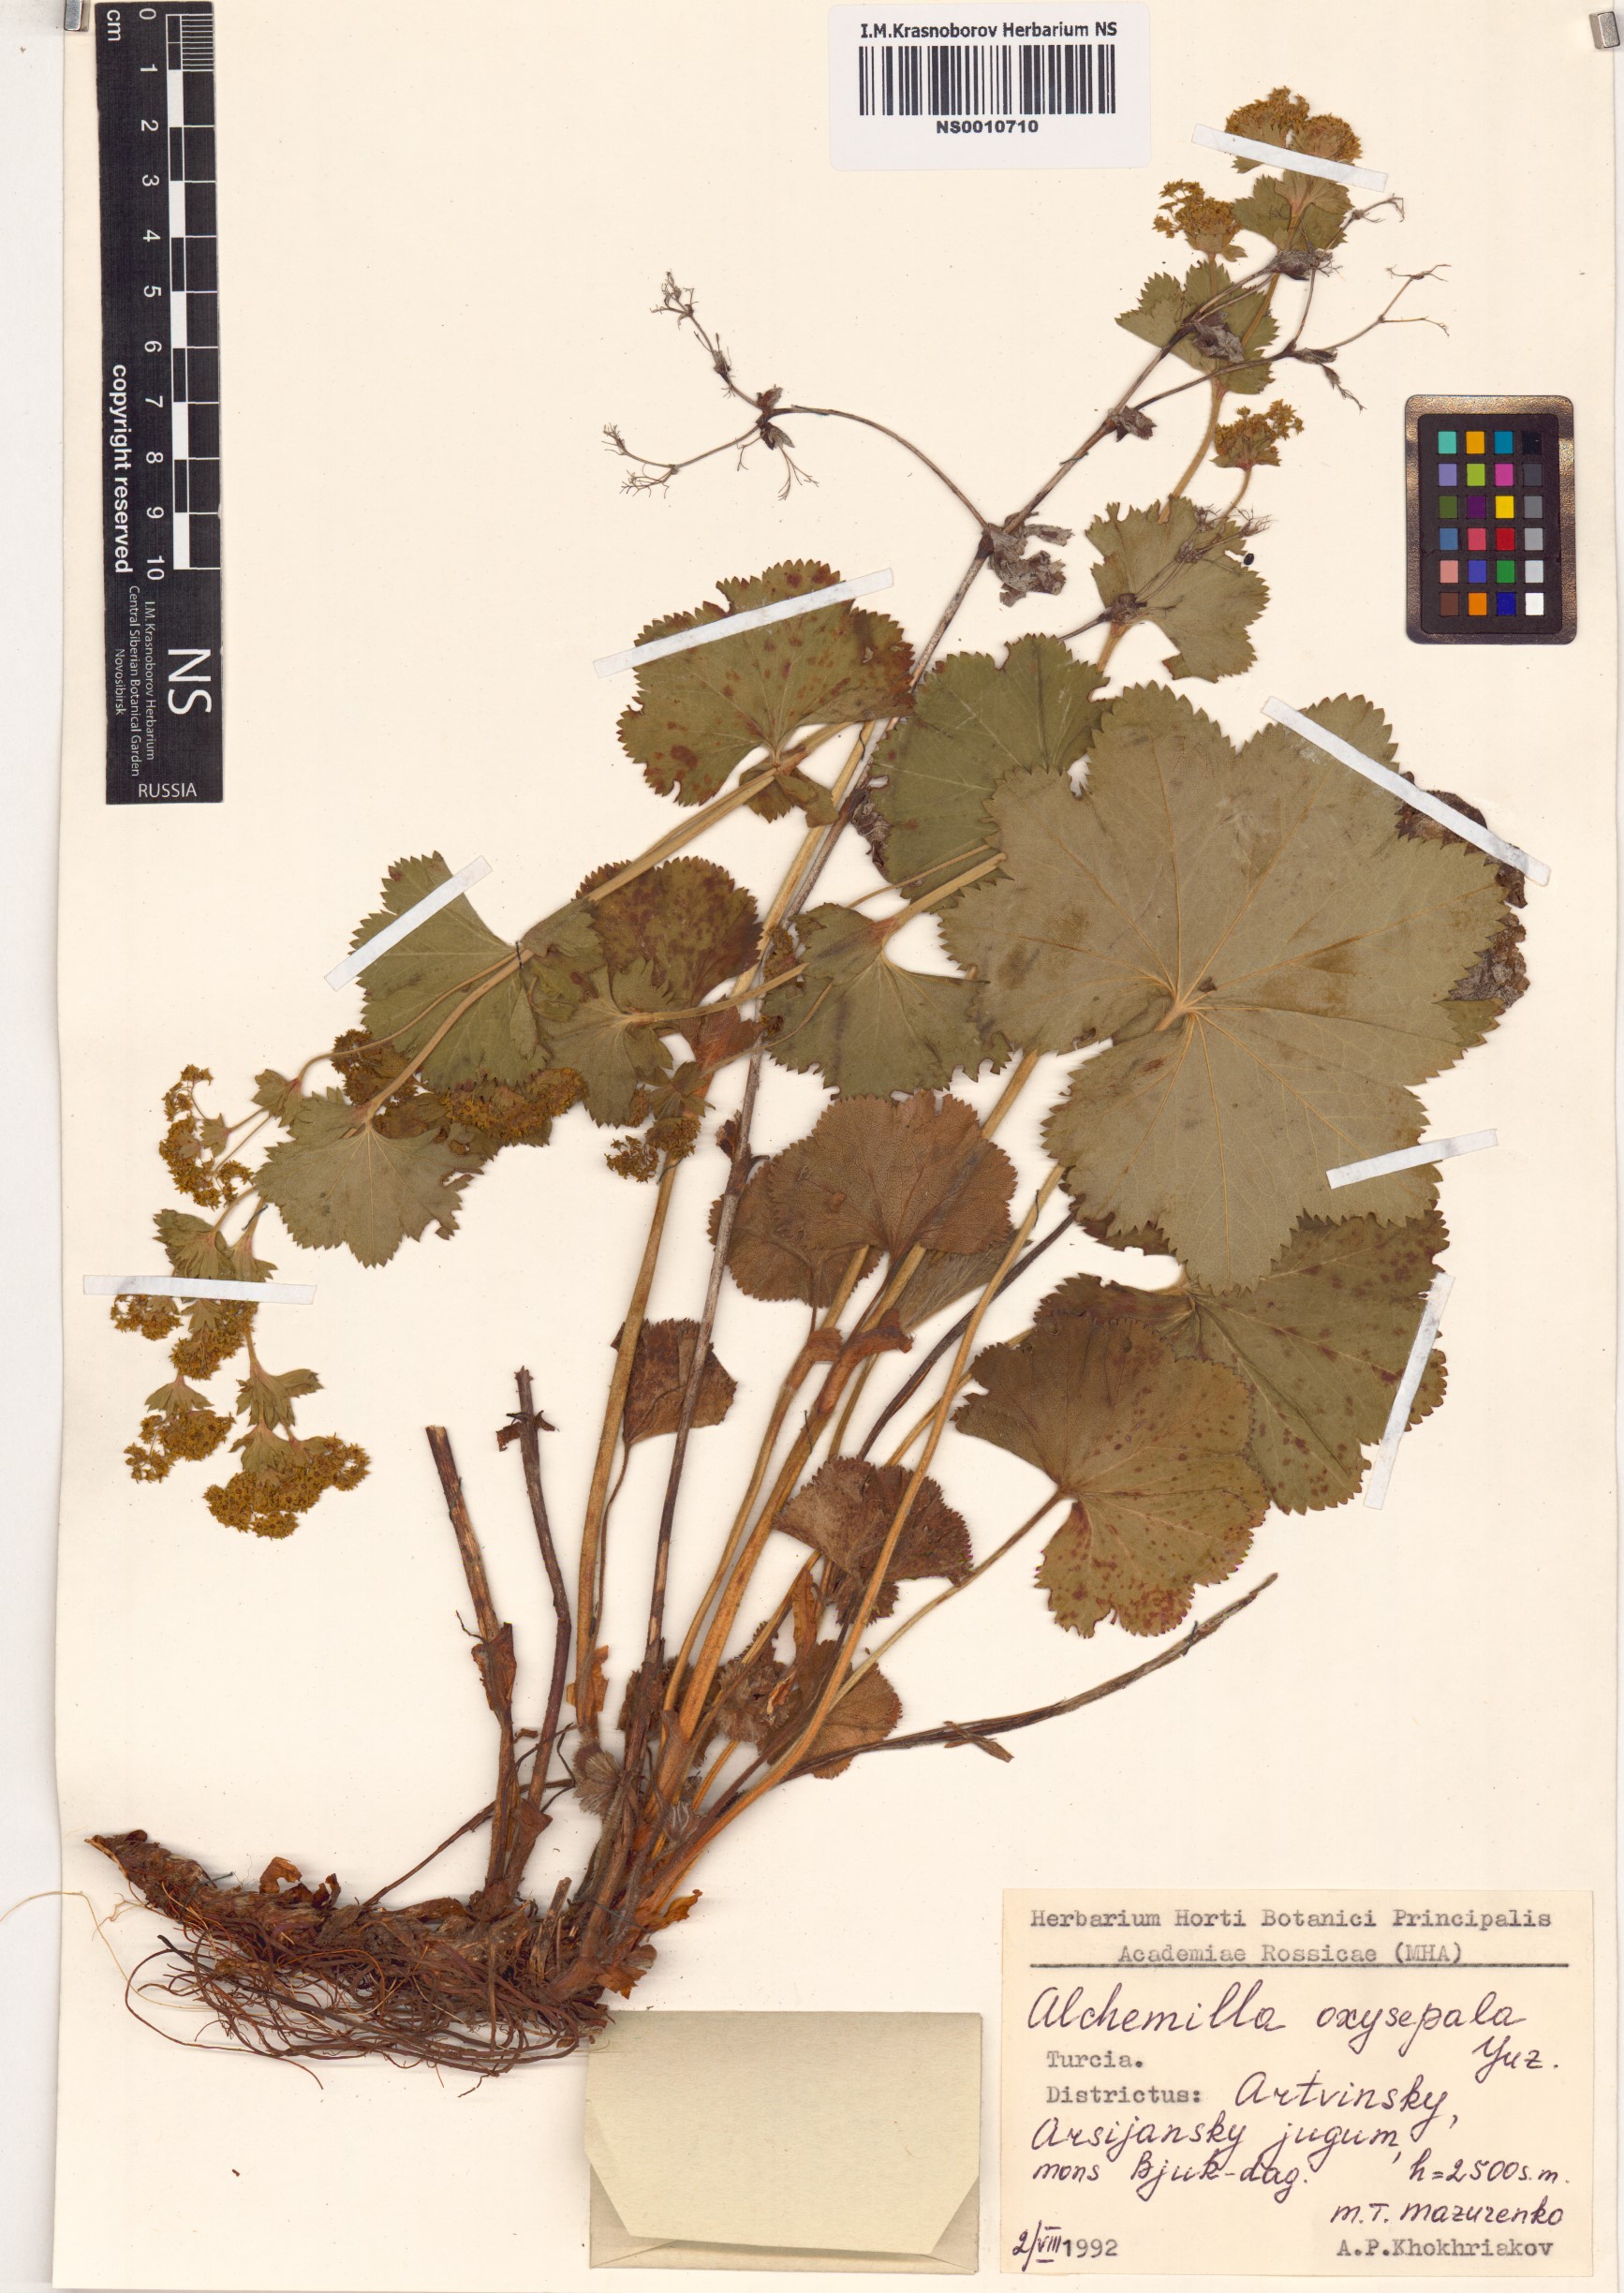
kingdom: Plantae
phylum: Tracheophyta
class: Magnoliopsida
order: Rosales
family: Rosaceae
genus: Alchemilla
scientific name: Alchemilla oxysepala
